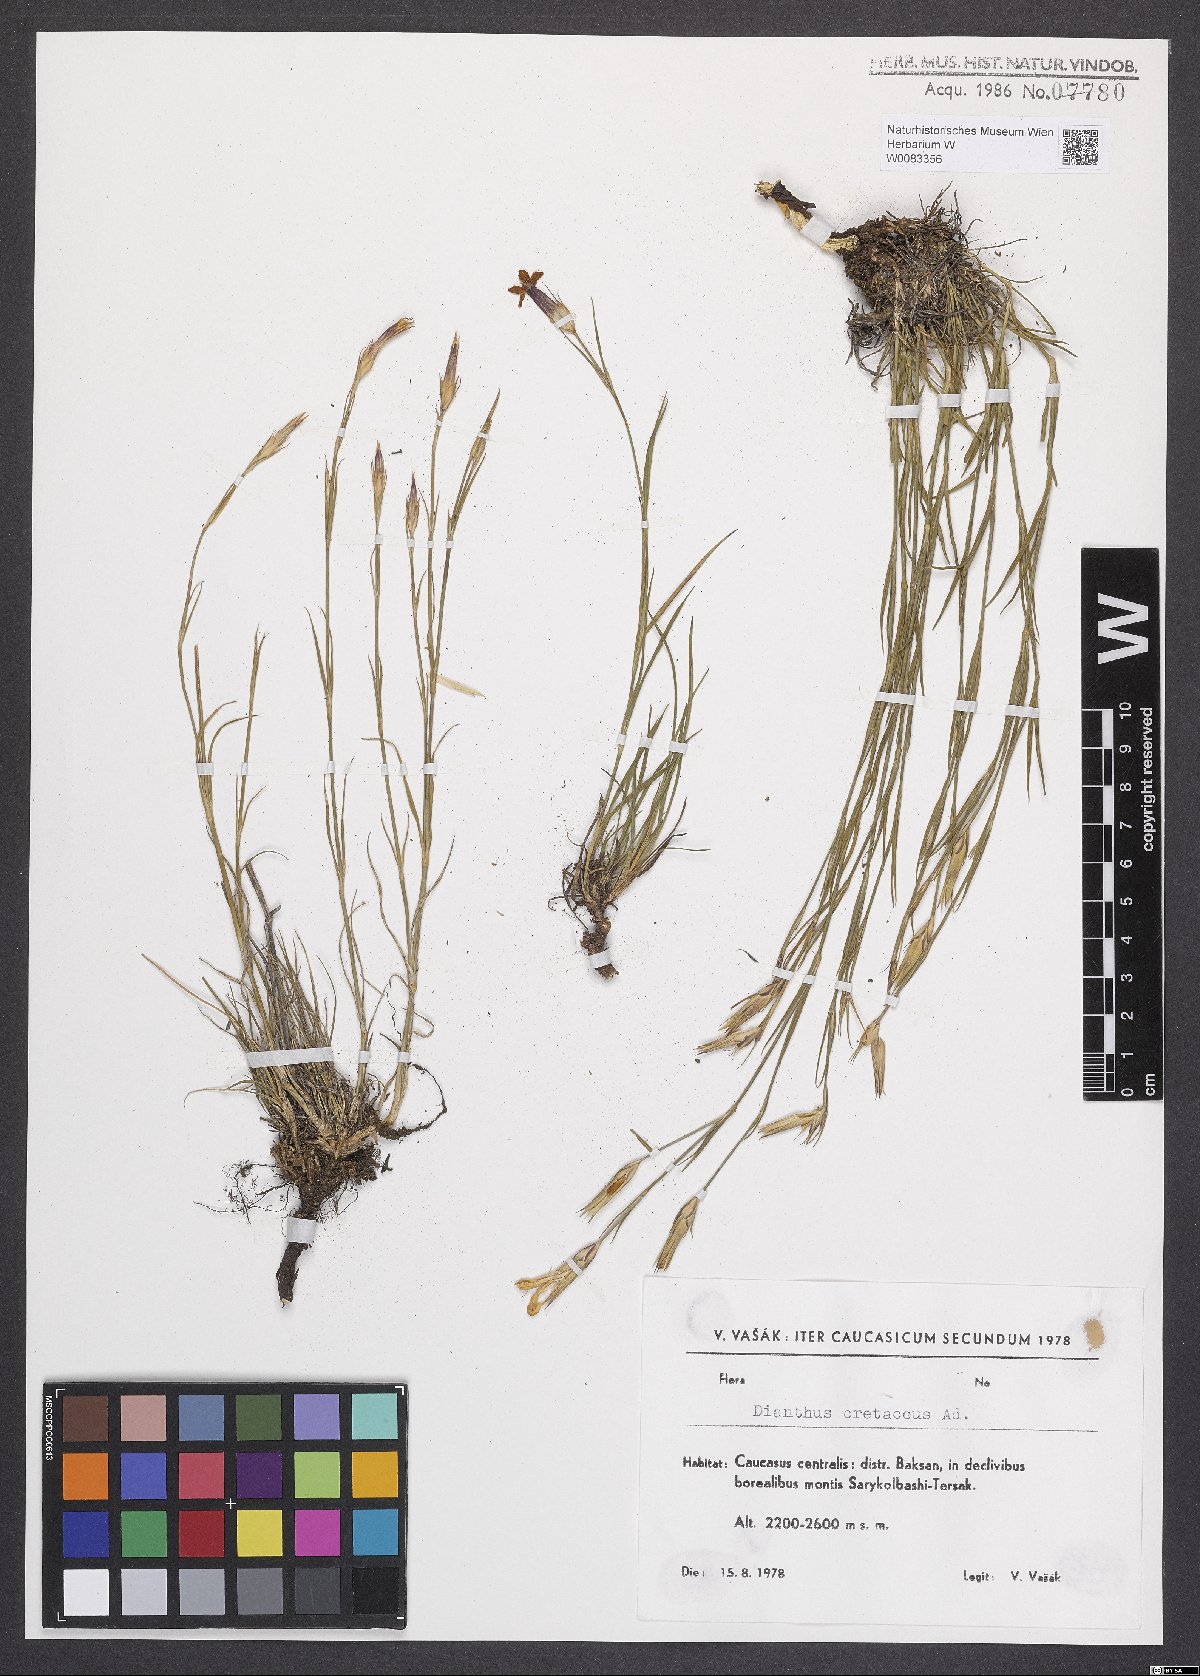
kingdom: Plantae
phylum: Tracheophyta
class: Magnoliopsida
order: Caryophyllales
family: Caryophyllaceae
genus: Dianthus
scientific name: Dianthus cretaceus
